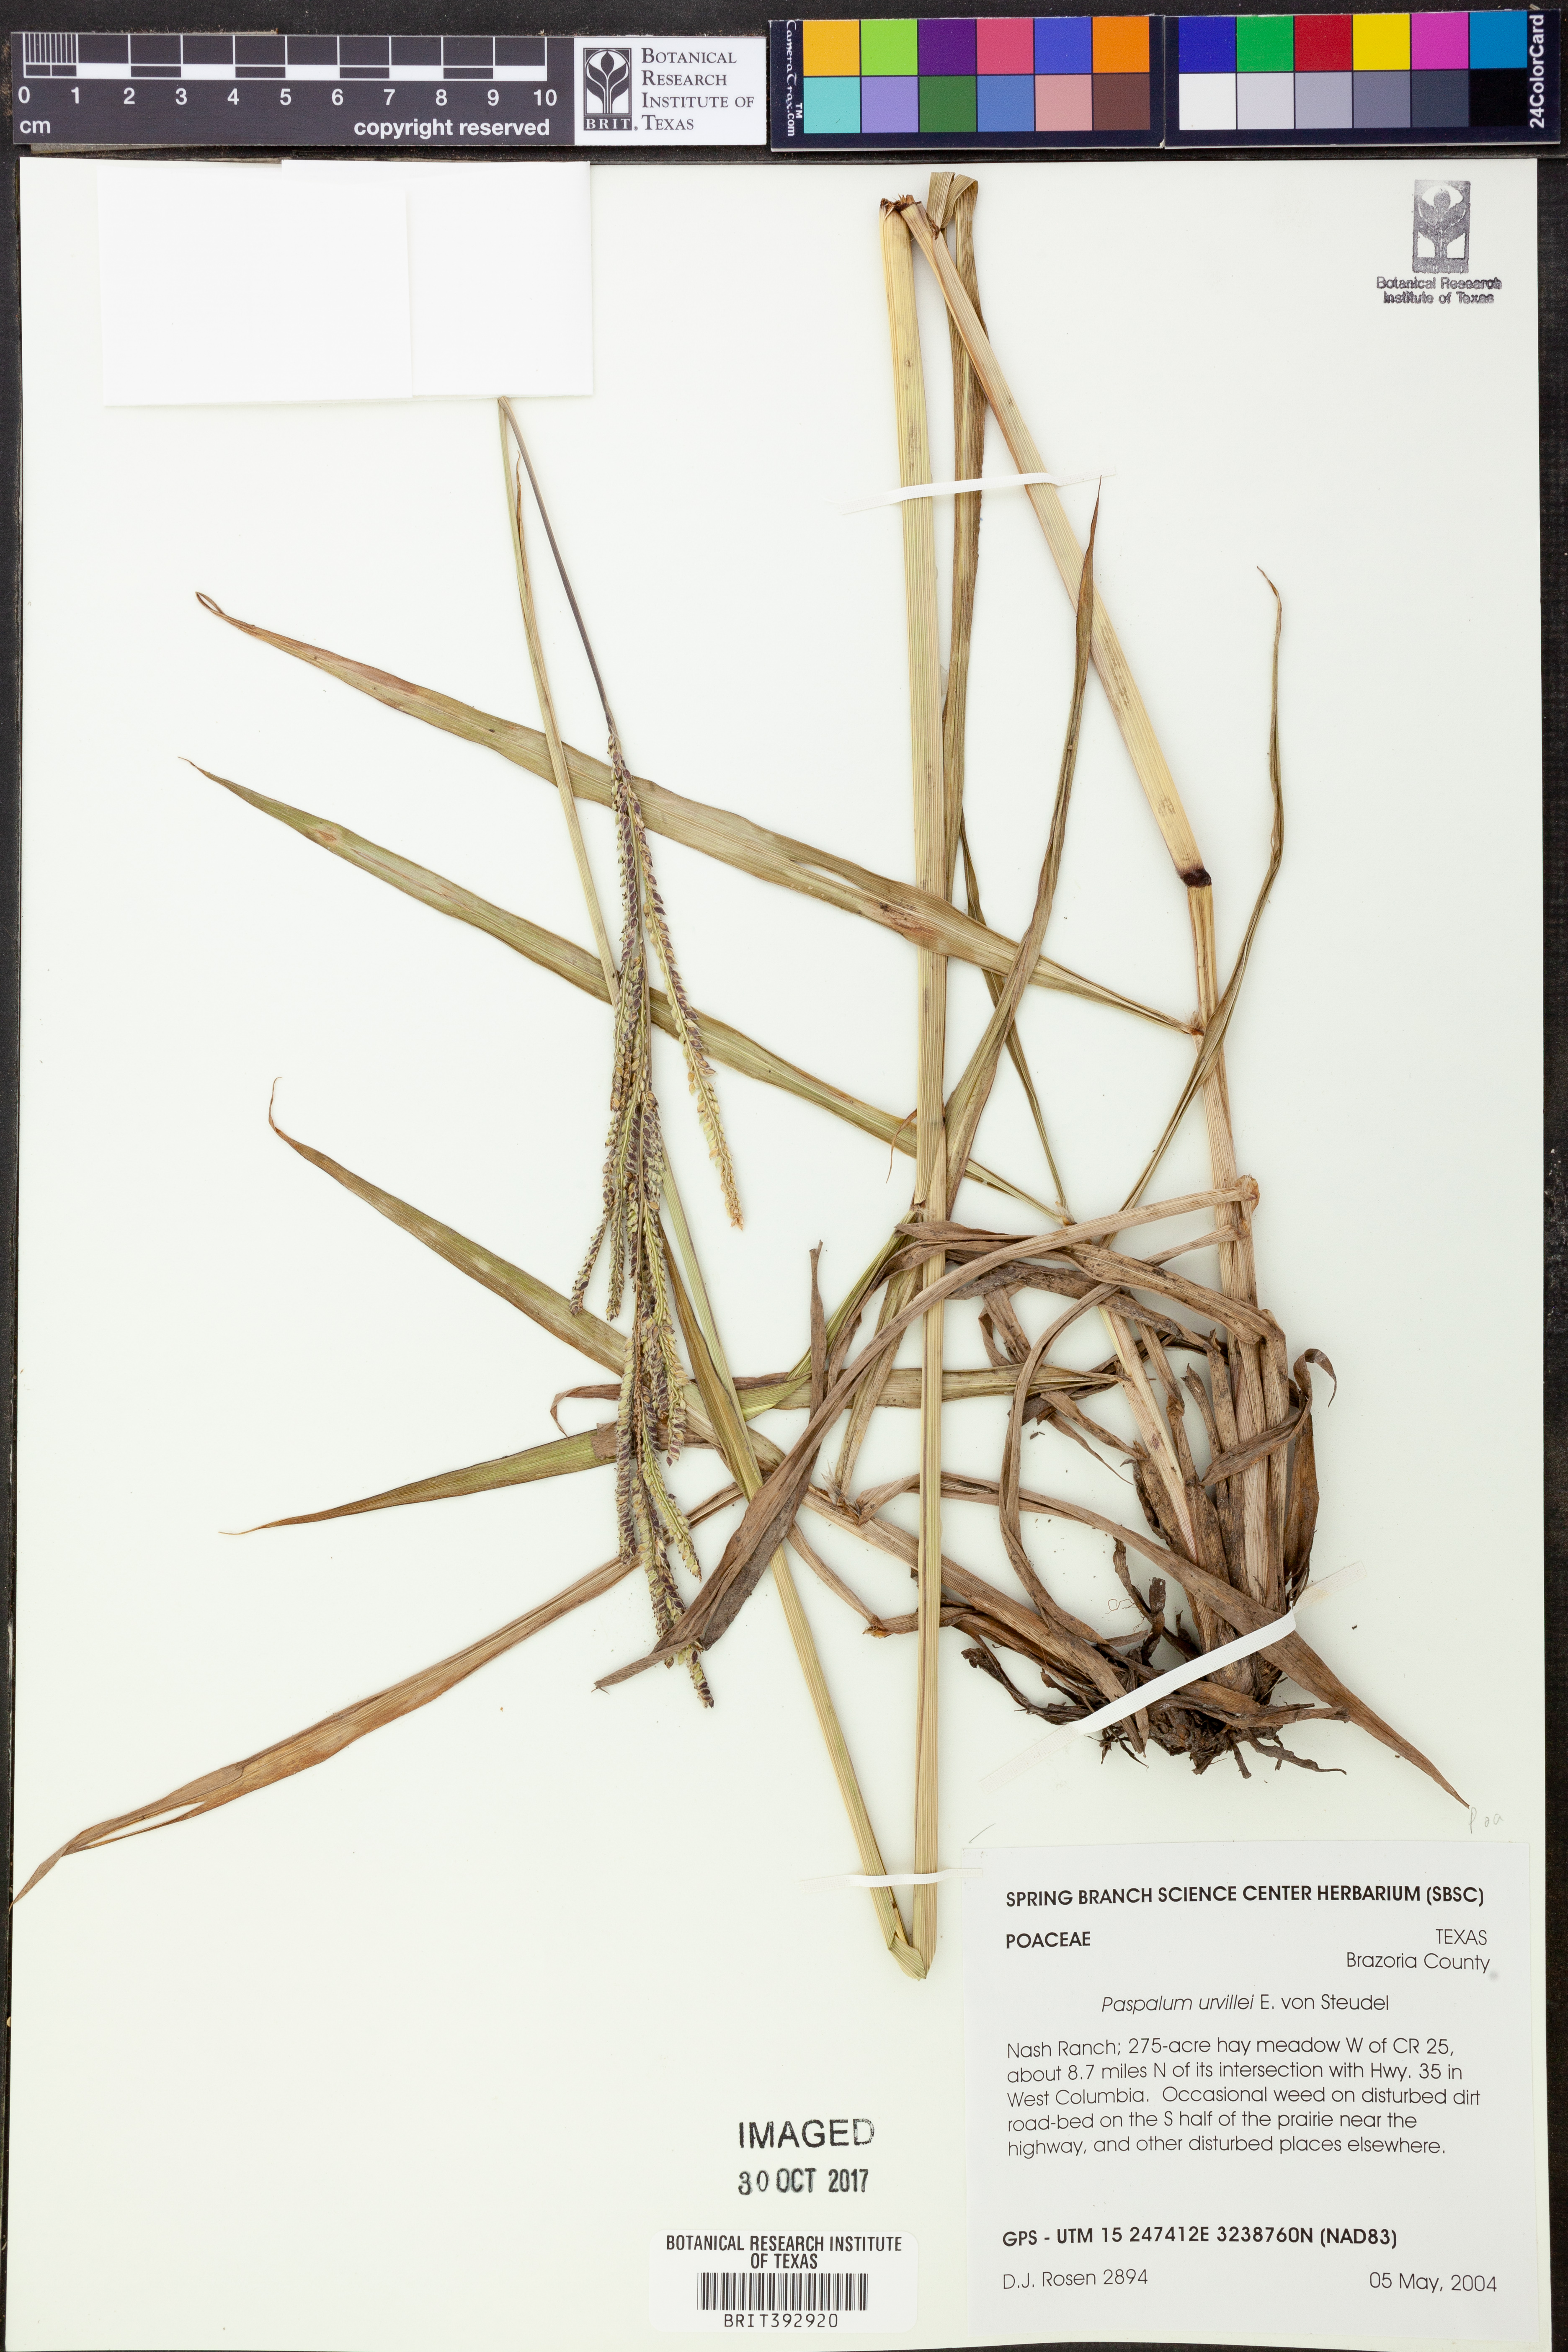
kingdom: Plantae
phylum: Tracheophyta
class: Liliopsida
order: Poales
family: Poaceae
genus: Paspalum
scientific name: Paspalum urvillei
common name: Vasey's grass
